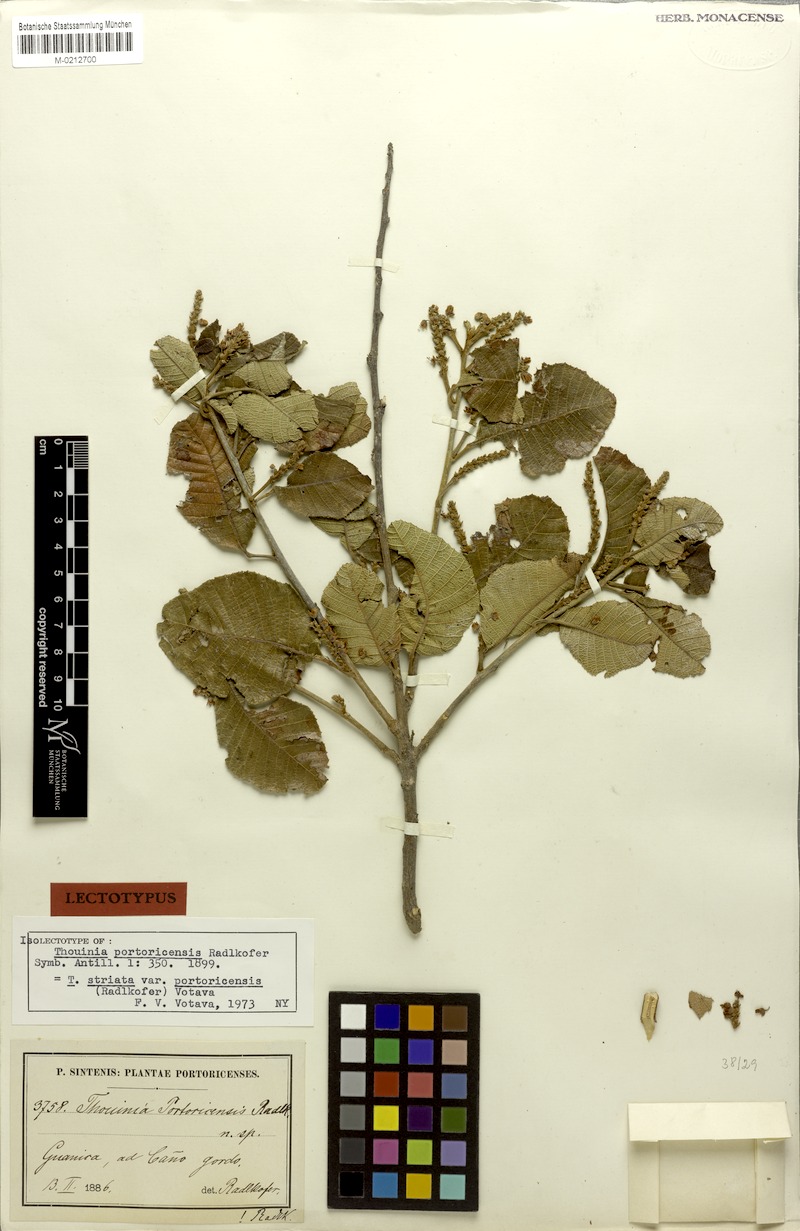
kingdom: Plantae
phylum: Tracheophyta
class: Magnoliopsida
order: Sapindales
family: Sapindaceae
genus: Thouinia
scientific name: Thouinia striata
